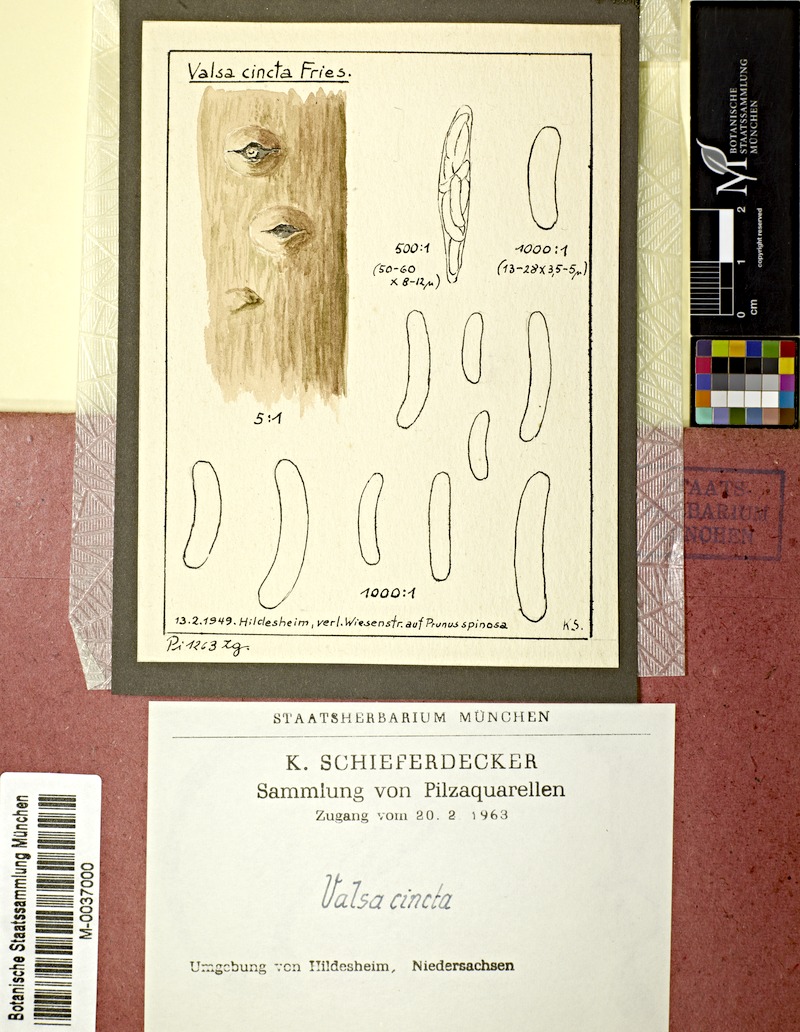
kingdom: Plantae
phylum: Tracheophyta
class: Magnoliopsida
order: Rosales
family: Rosaceae
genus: Prunus
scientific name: Prunus spinosa
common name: Blackthorn
